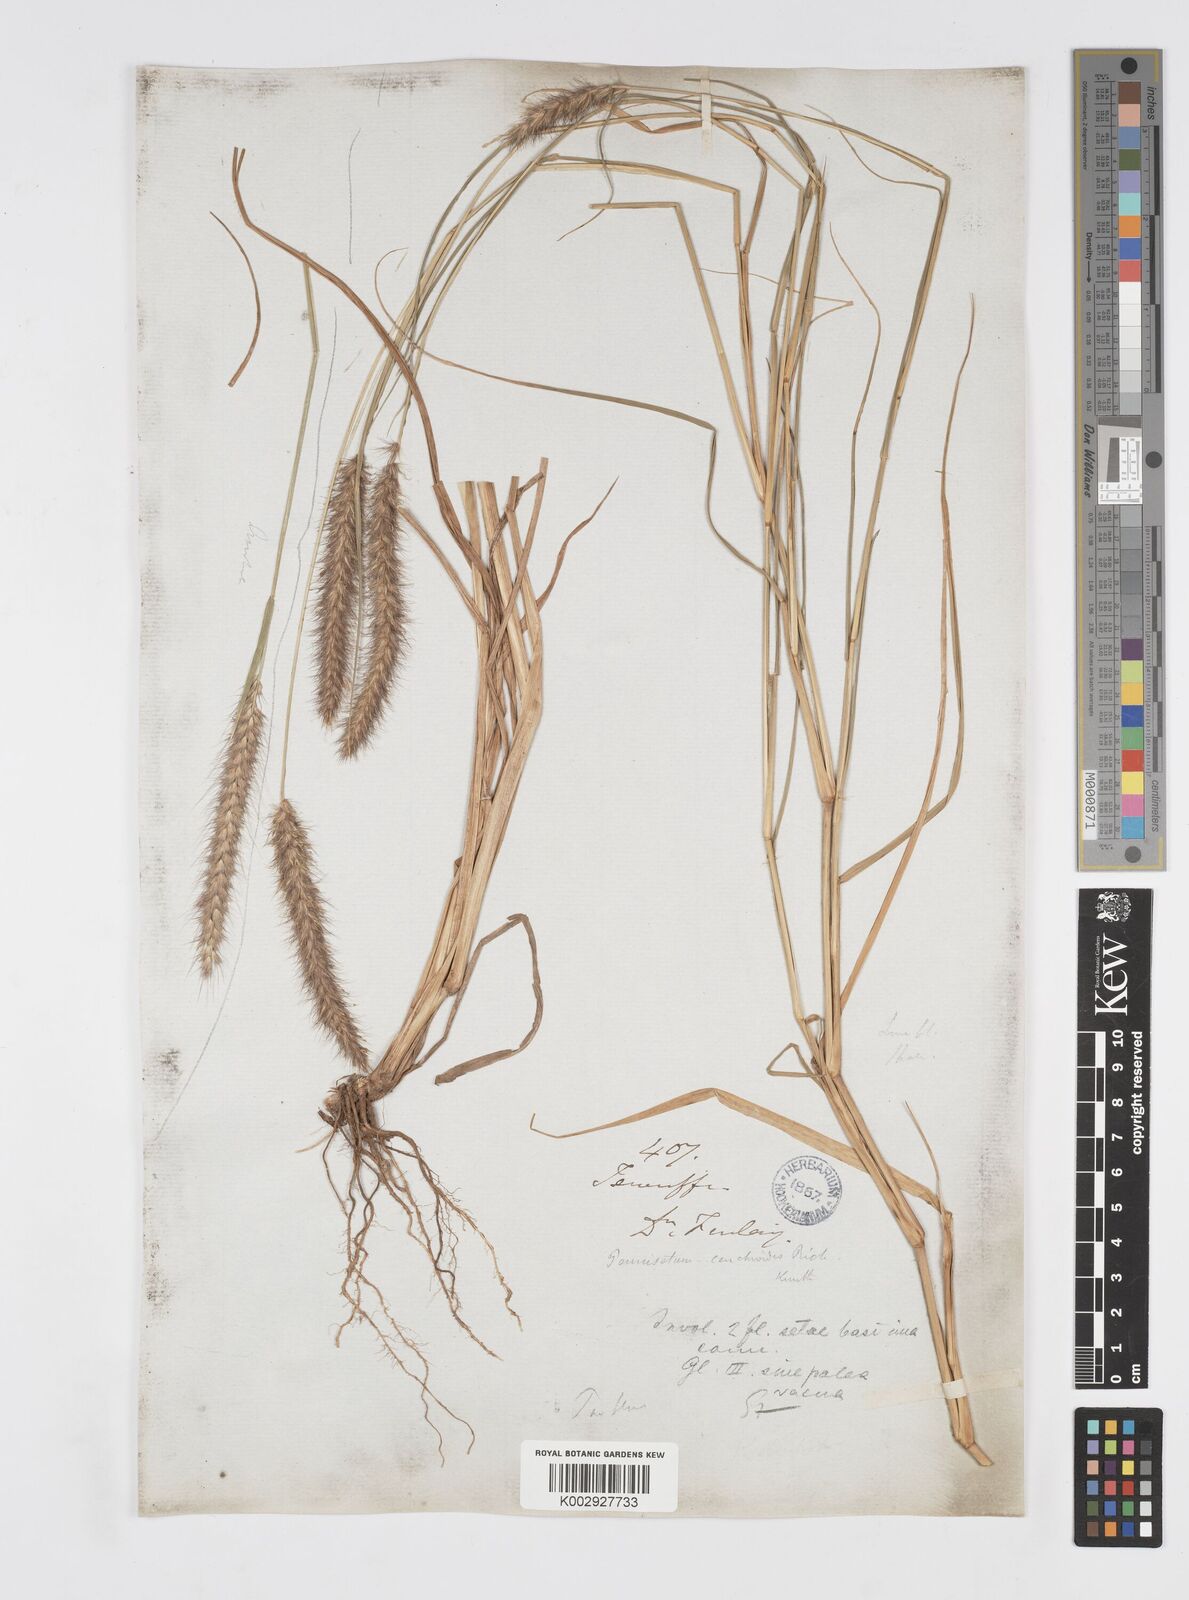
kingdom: Plantae
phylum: Tracheophyta
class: Liliopsida
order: Poales
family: Poaceae
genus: Cenchrus
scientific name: Cenchrus ciliaris
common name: Buffelgrass
